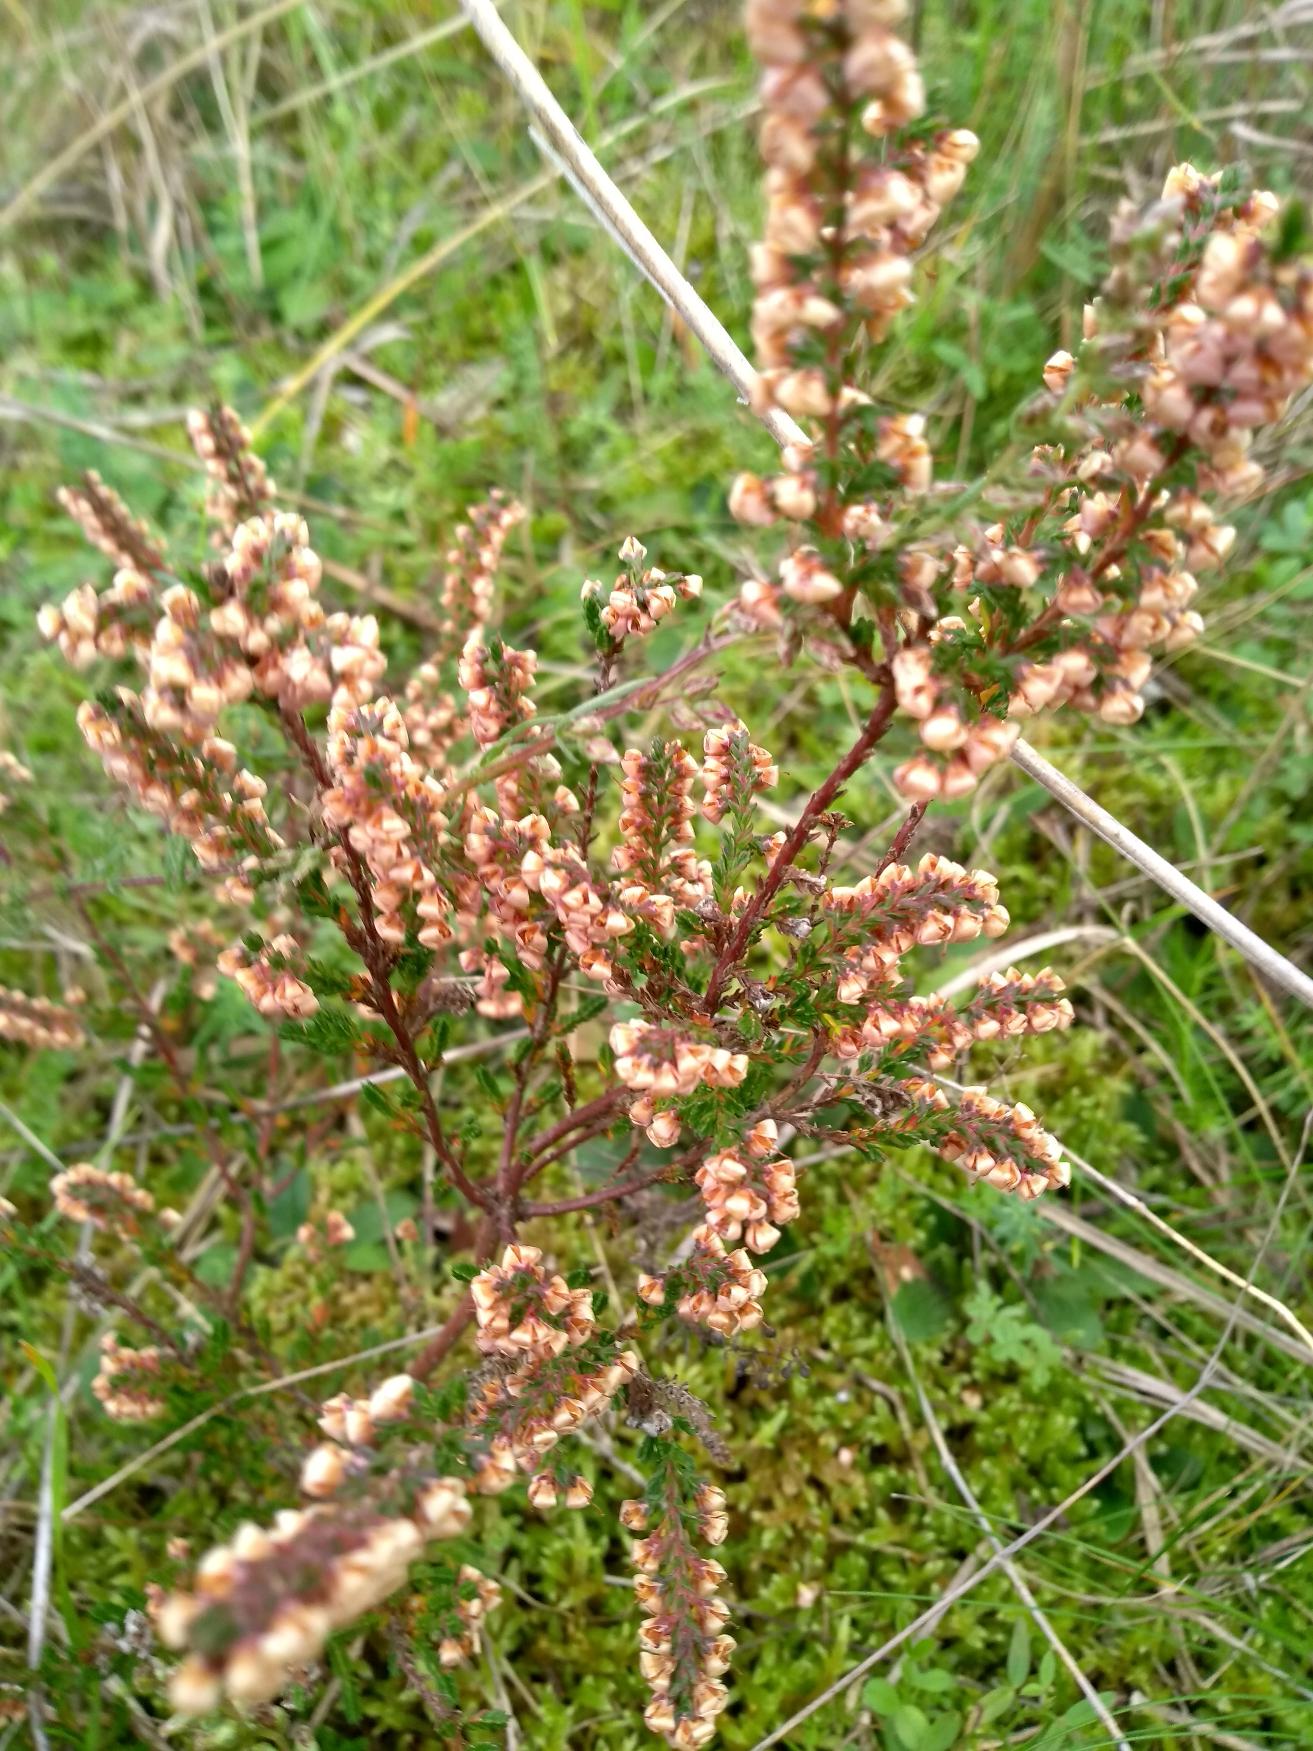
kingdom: Plantae
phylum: Tracheophyta
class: Magnoliopsida
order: Ericales
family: Ericaceae
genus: Calluna
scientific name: Calluna vulgaris
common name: Hedelyng
